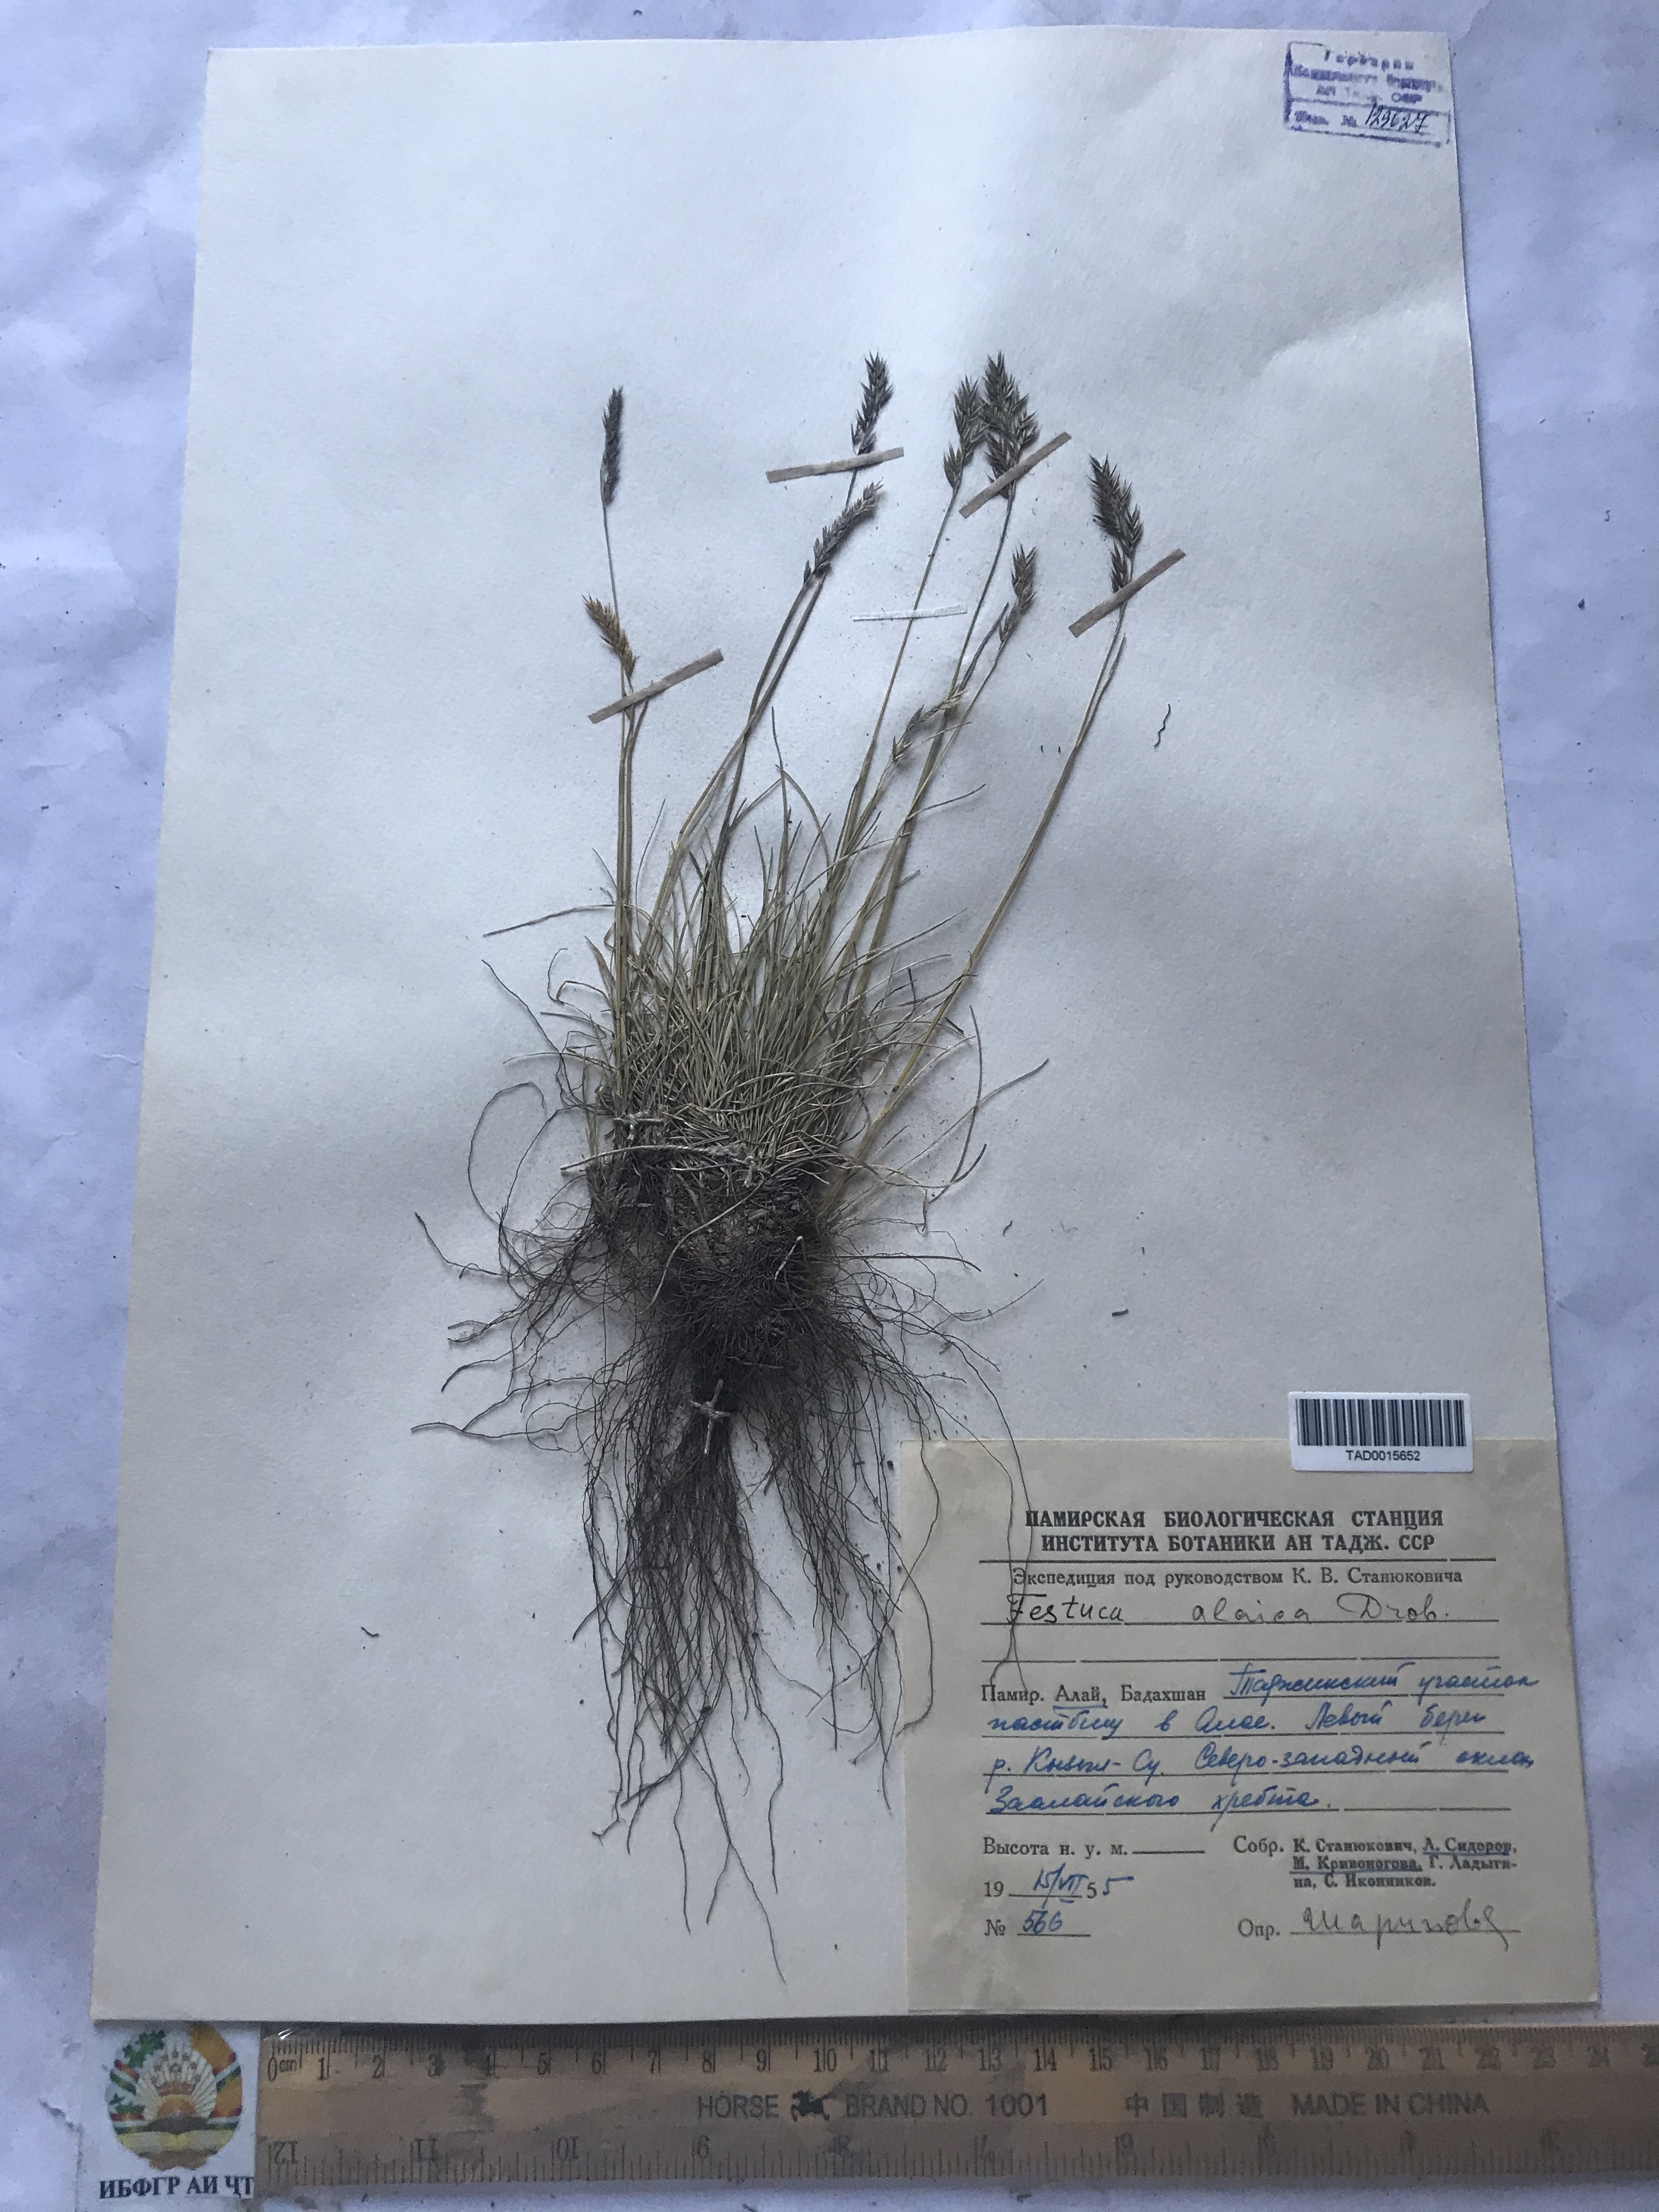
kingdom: Plantae
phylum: Tracheophyta
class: Liliopsida
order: Poales
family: Poaceae
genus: Festuca
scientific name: Festuca alaica
